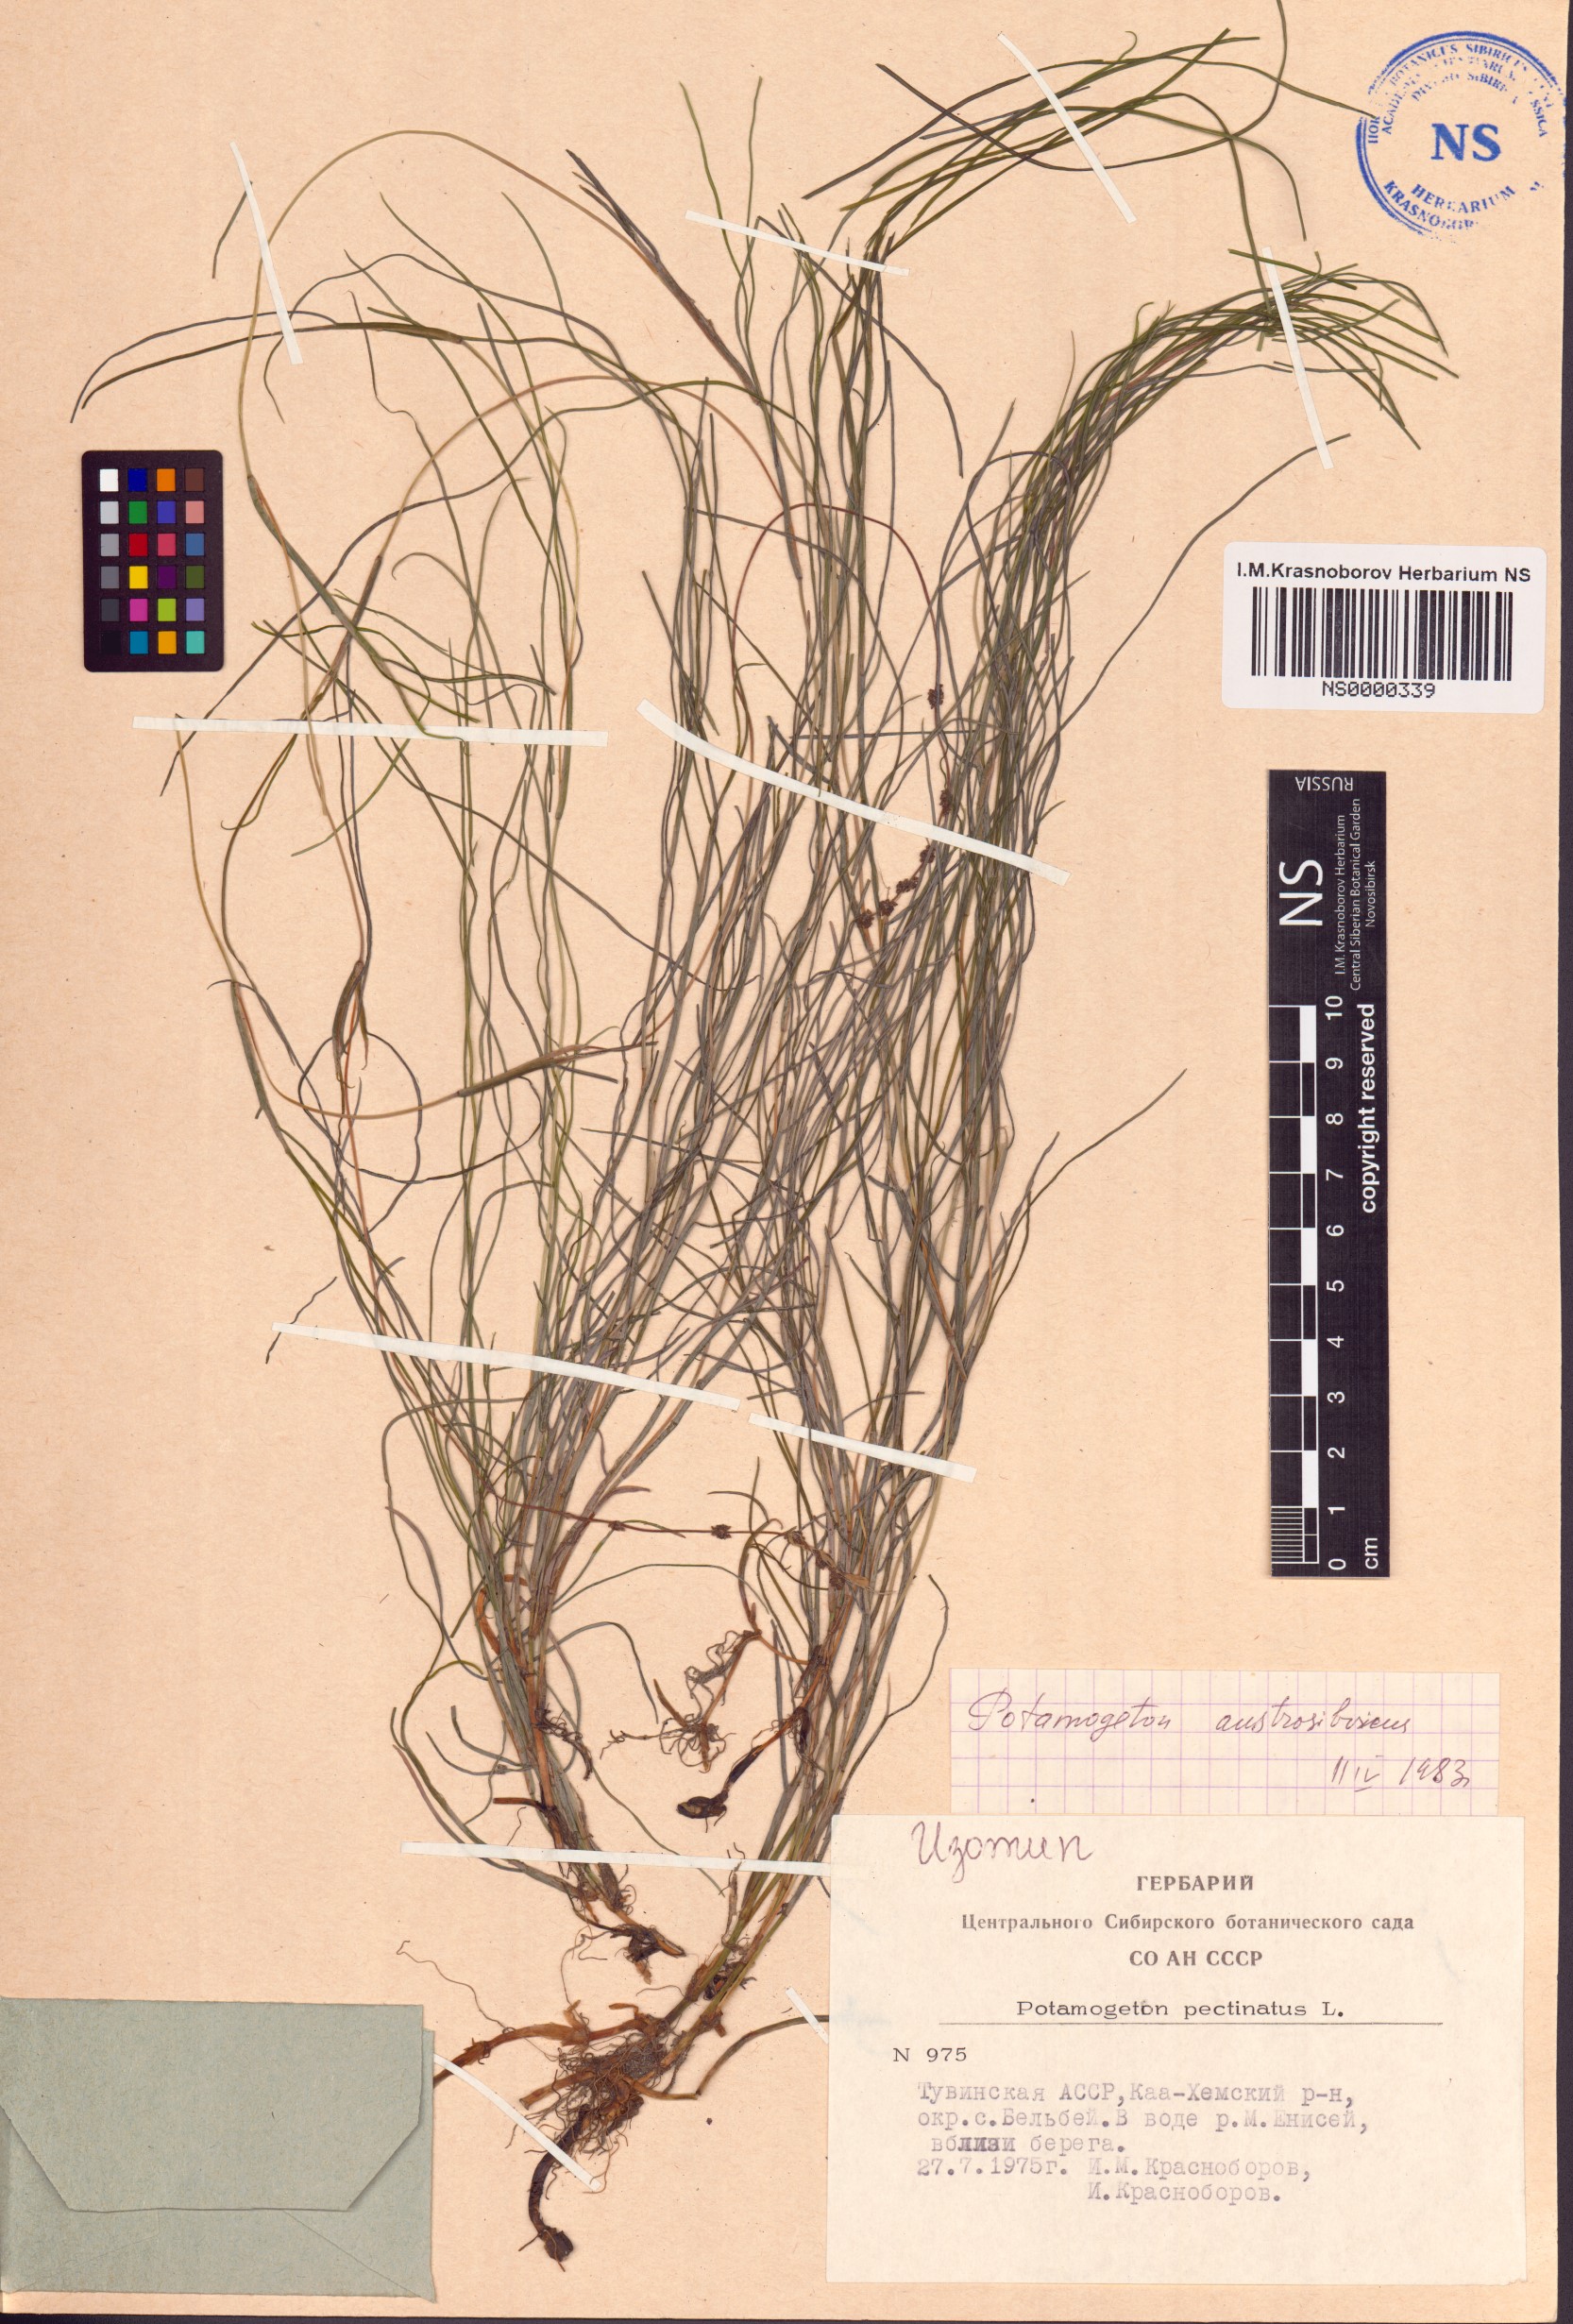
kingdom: Plantae
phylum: Tracheophyta
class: Liliopsida
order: Alismatales
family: Potamogetonaceae
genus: Stuckenia
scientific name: Stuckenia filiformis
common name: Alpine thread-leaved pondweed
